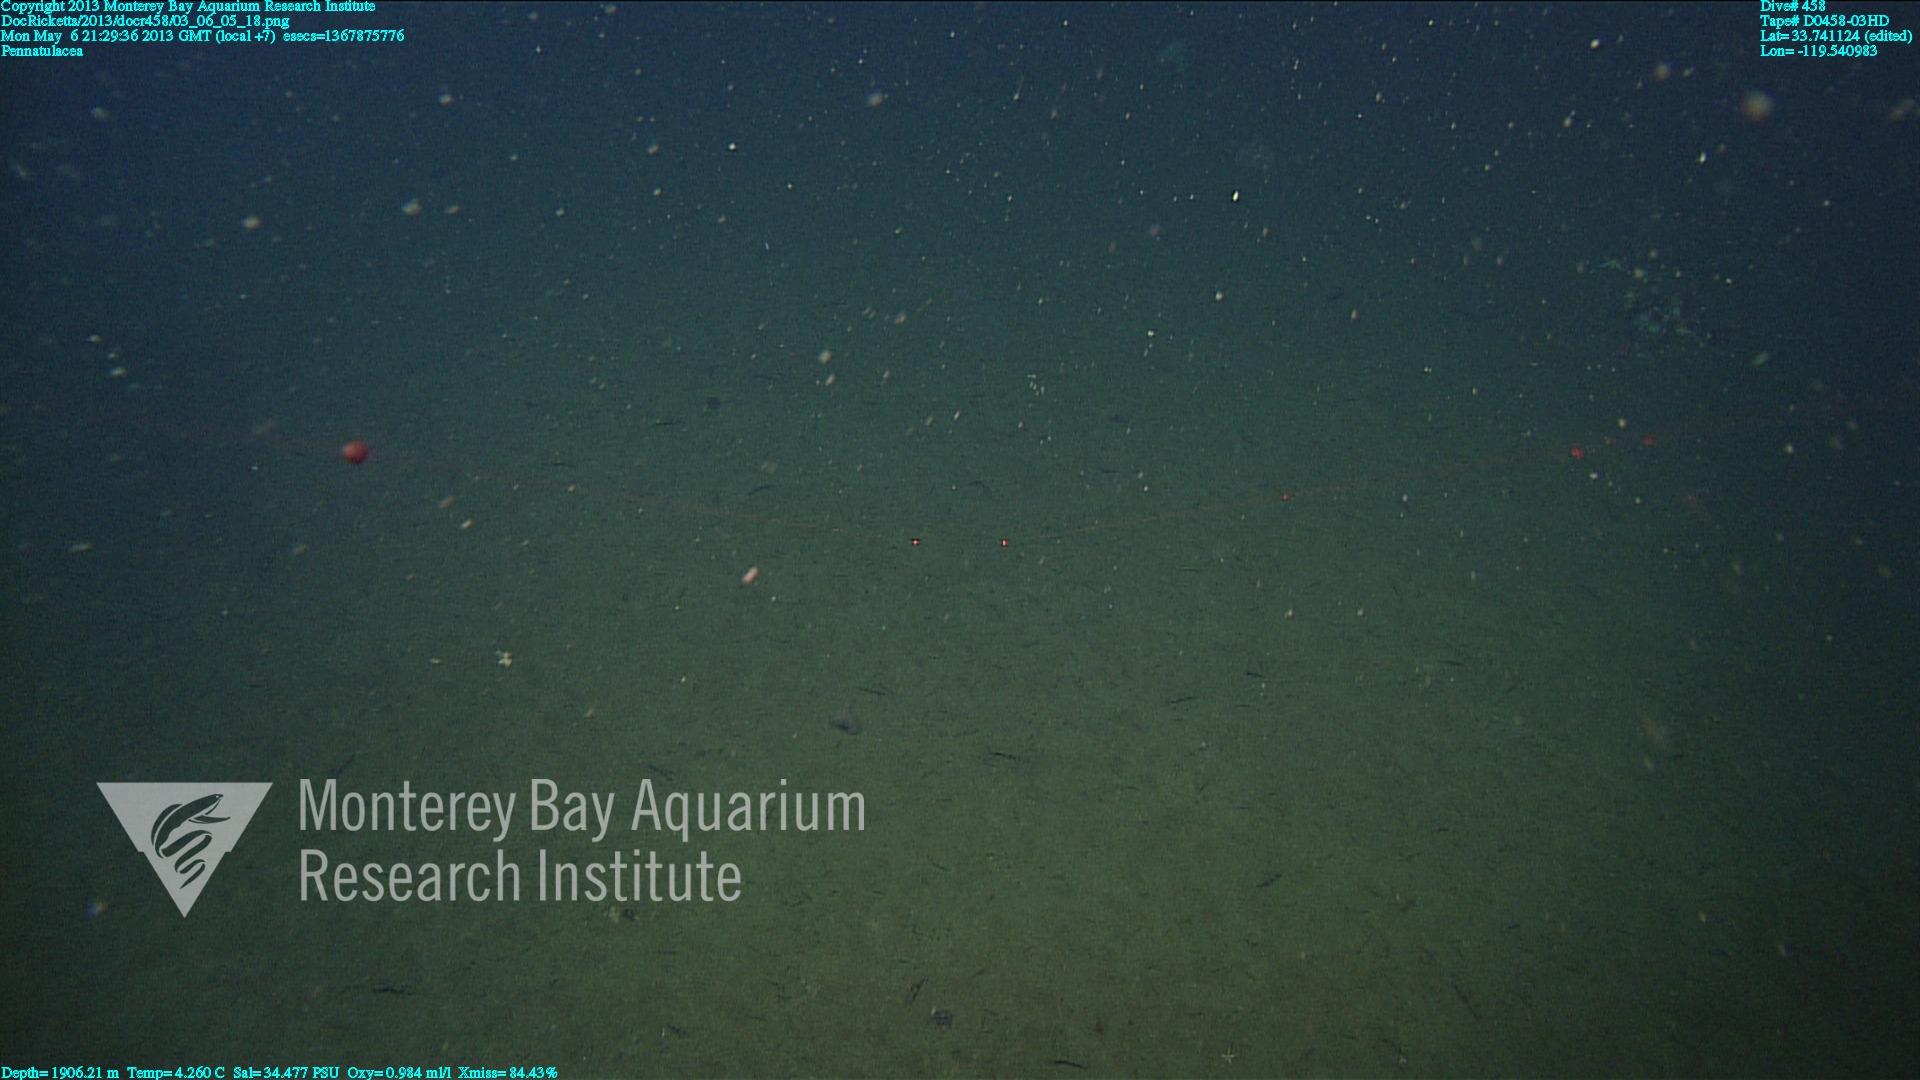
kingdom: Animalia
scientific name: Animalia
